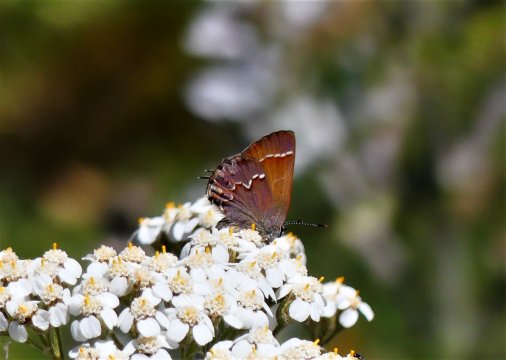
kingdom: Animalia
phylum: Arthropoda
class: Insecta
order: Lepidoptera
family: Lycaenidae
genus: Mitoura
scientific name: Mitoura gryneus
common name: Juniper Hairstreak
